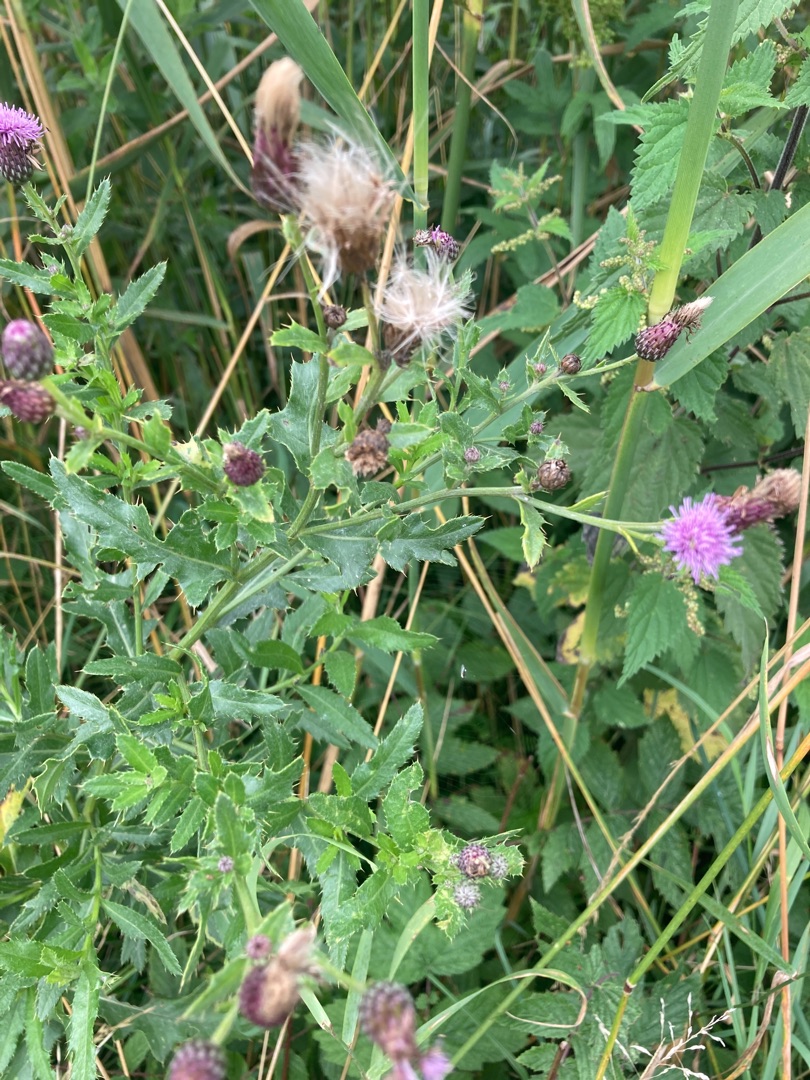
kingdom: Plantae
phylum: Tracheophyta
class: Magnoliopsida
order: Asterales
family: Asteraceae
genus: Cirsium
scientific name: Cirsium arvense
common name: Ager-tidsel
